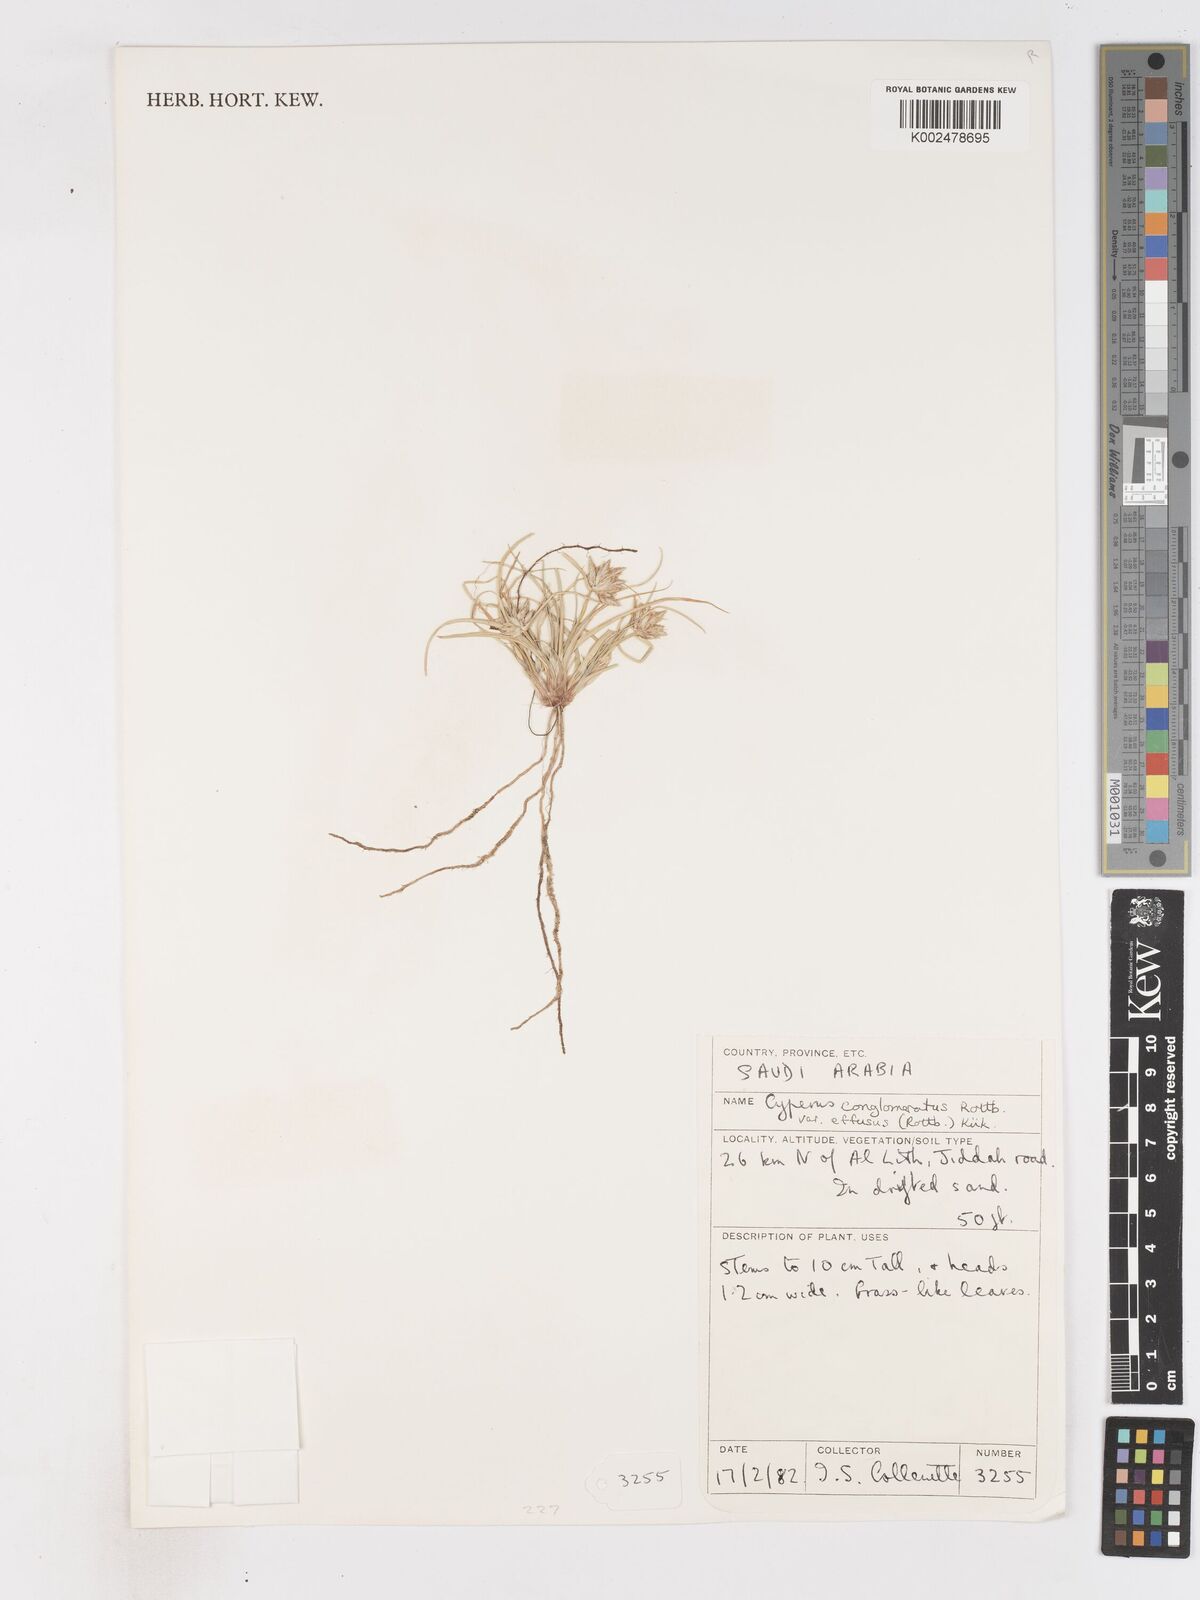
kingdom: Plantae
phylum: Tracheophyta
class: Liliopsida
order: Poales
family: Cyperaceae
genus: Cyperus
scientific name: Cyperus conglomeratus
